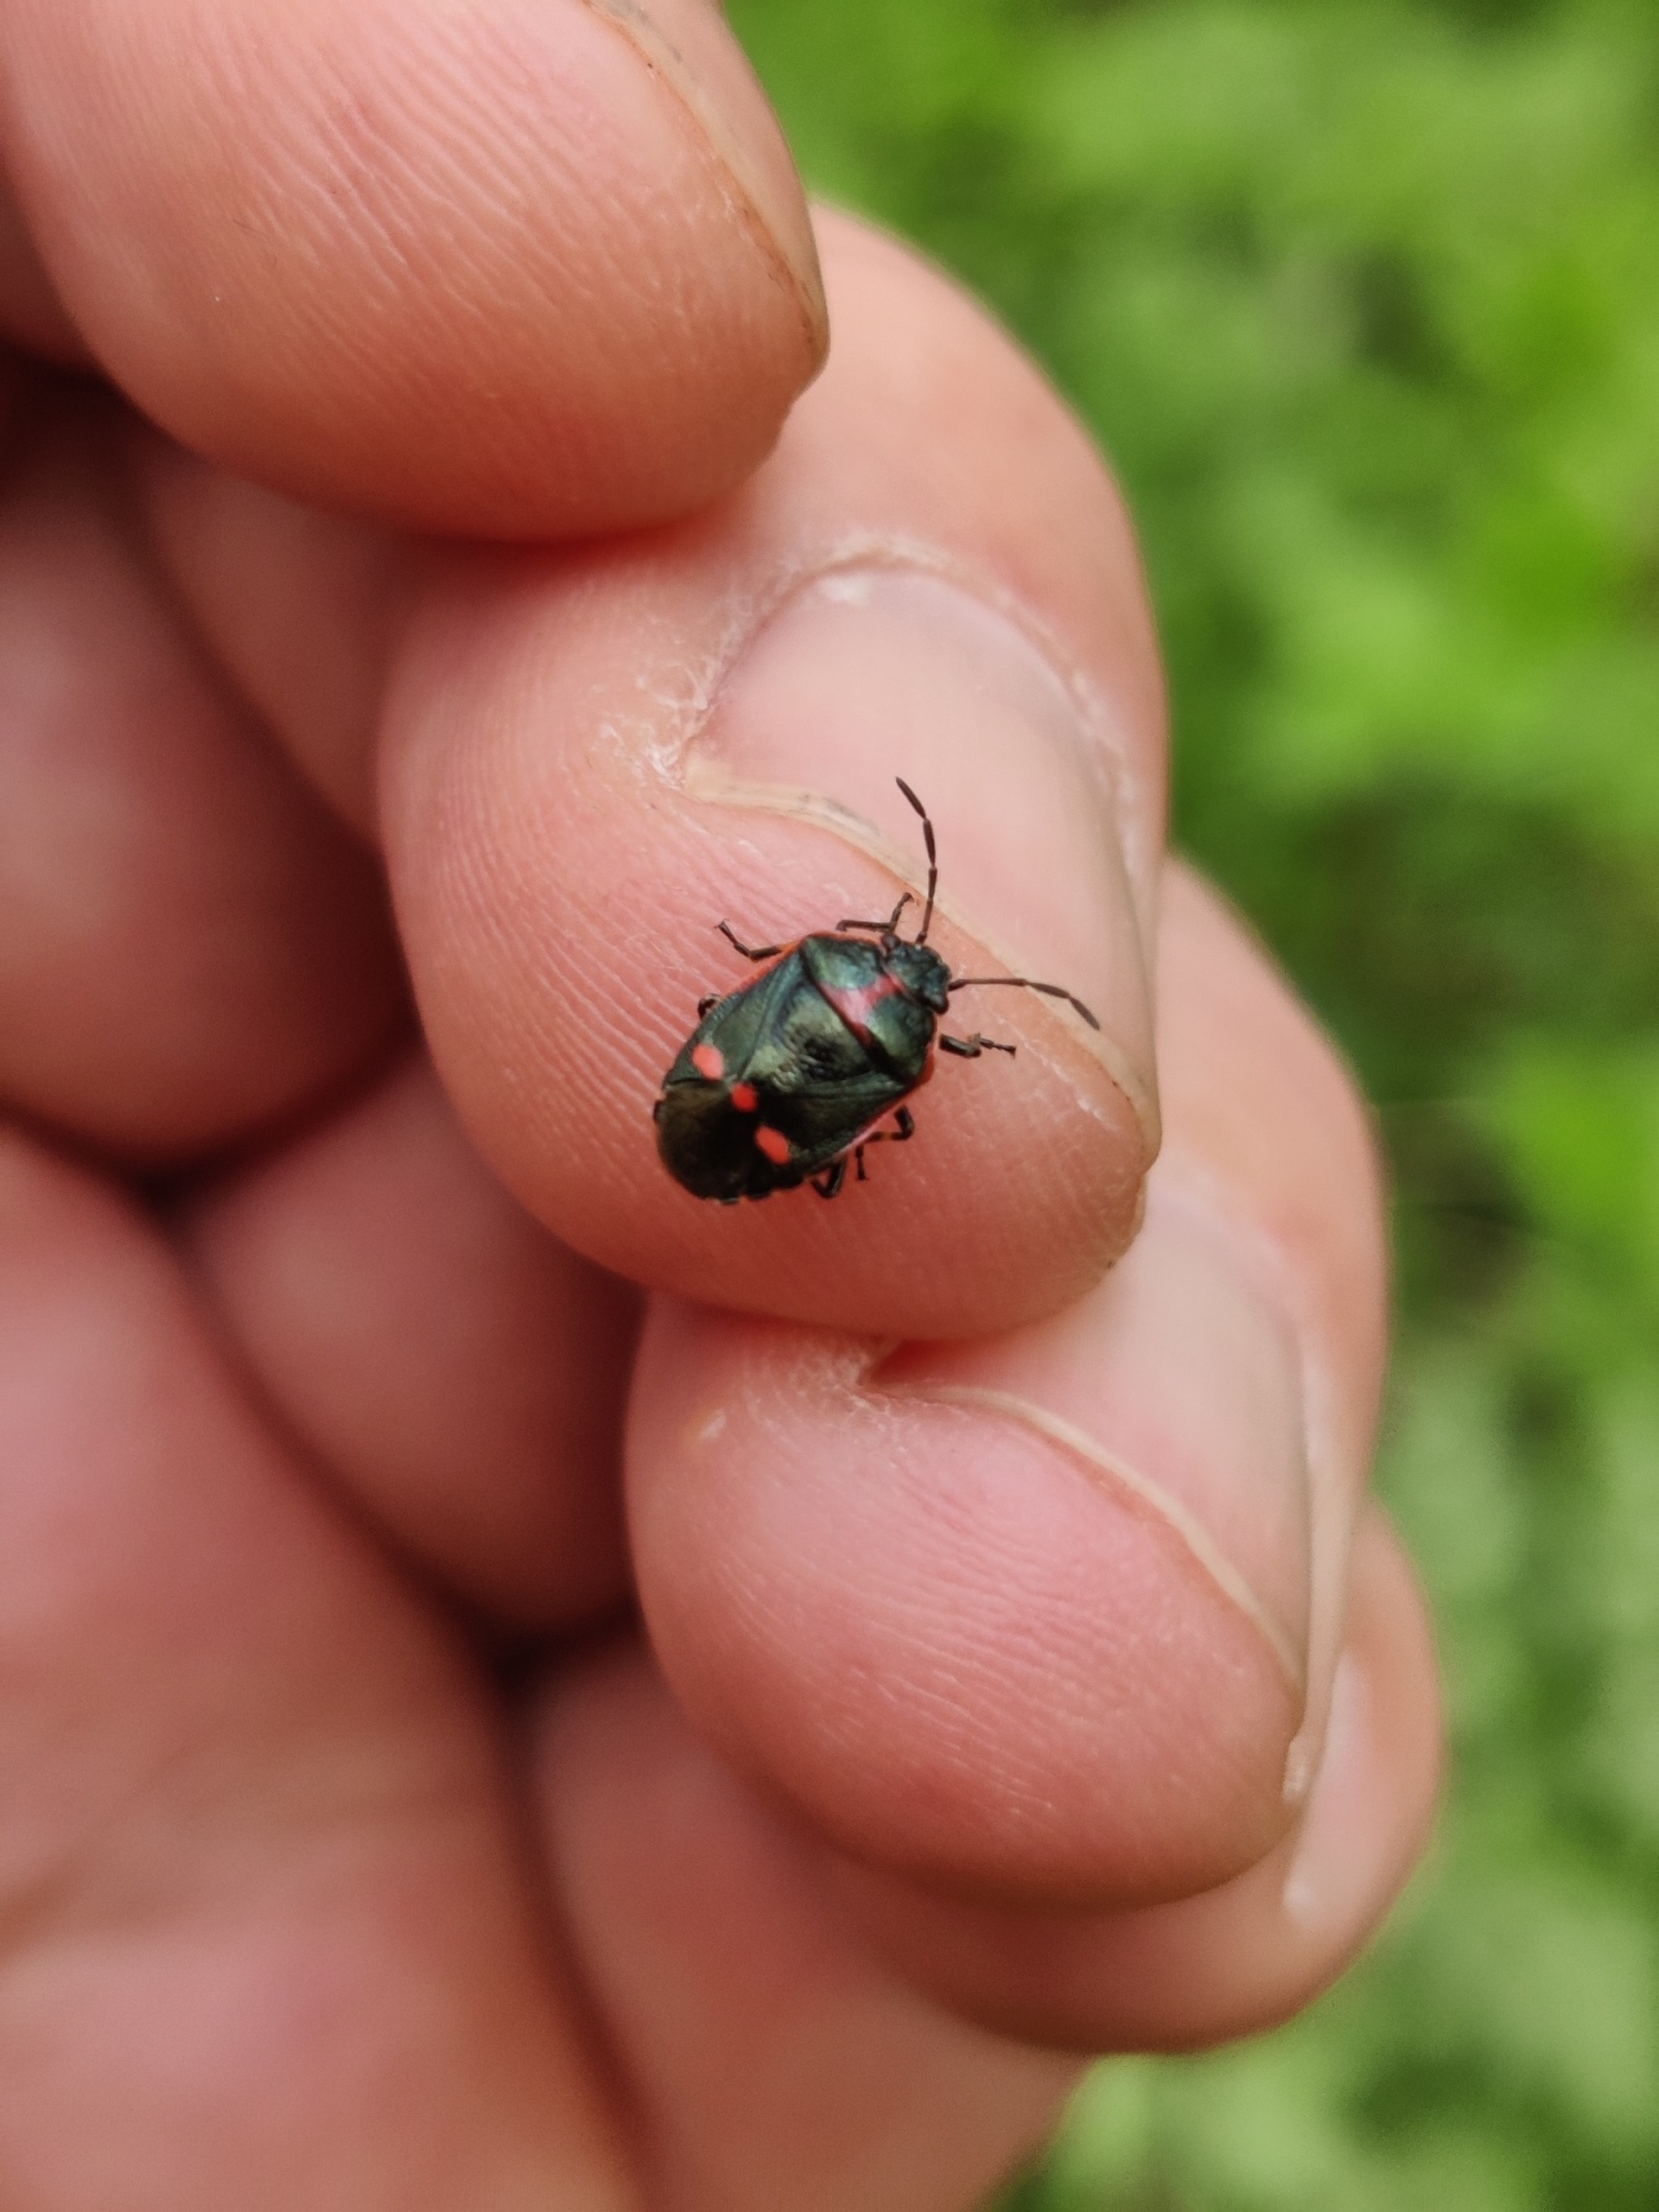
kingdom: Animalia
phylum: Arthropoda
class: Insecta
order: Hemiptera
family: Pentatomidae
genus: Eurydema
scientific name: Eurydema oleracea
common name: Almindelig kåltæge
